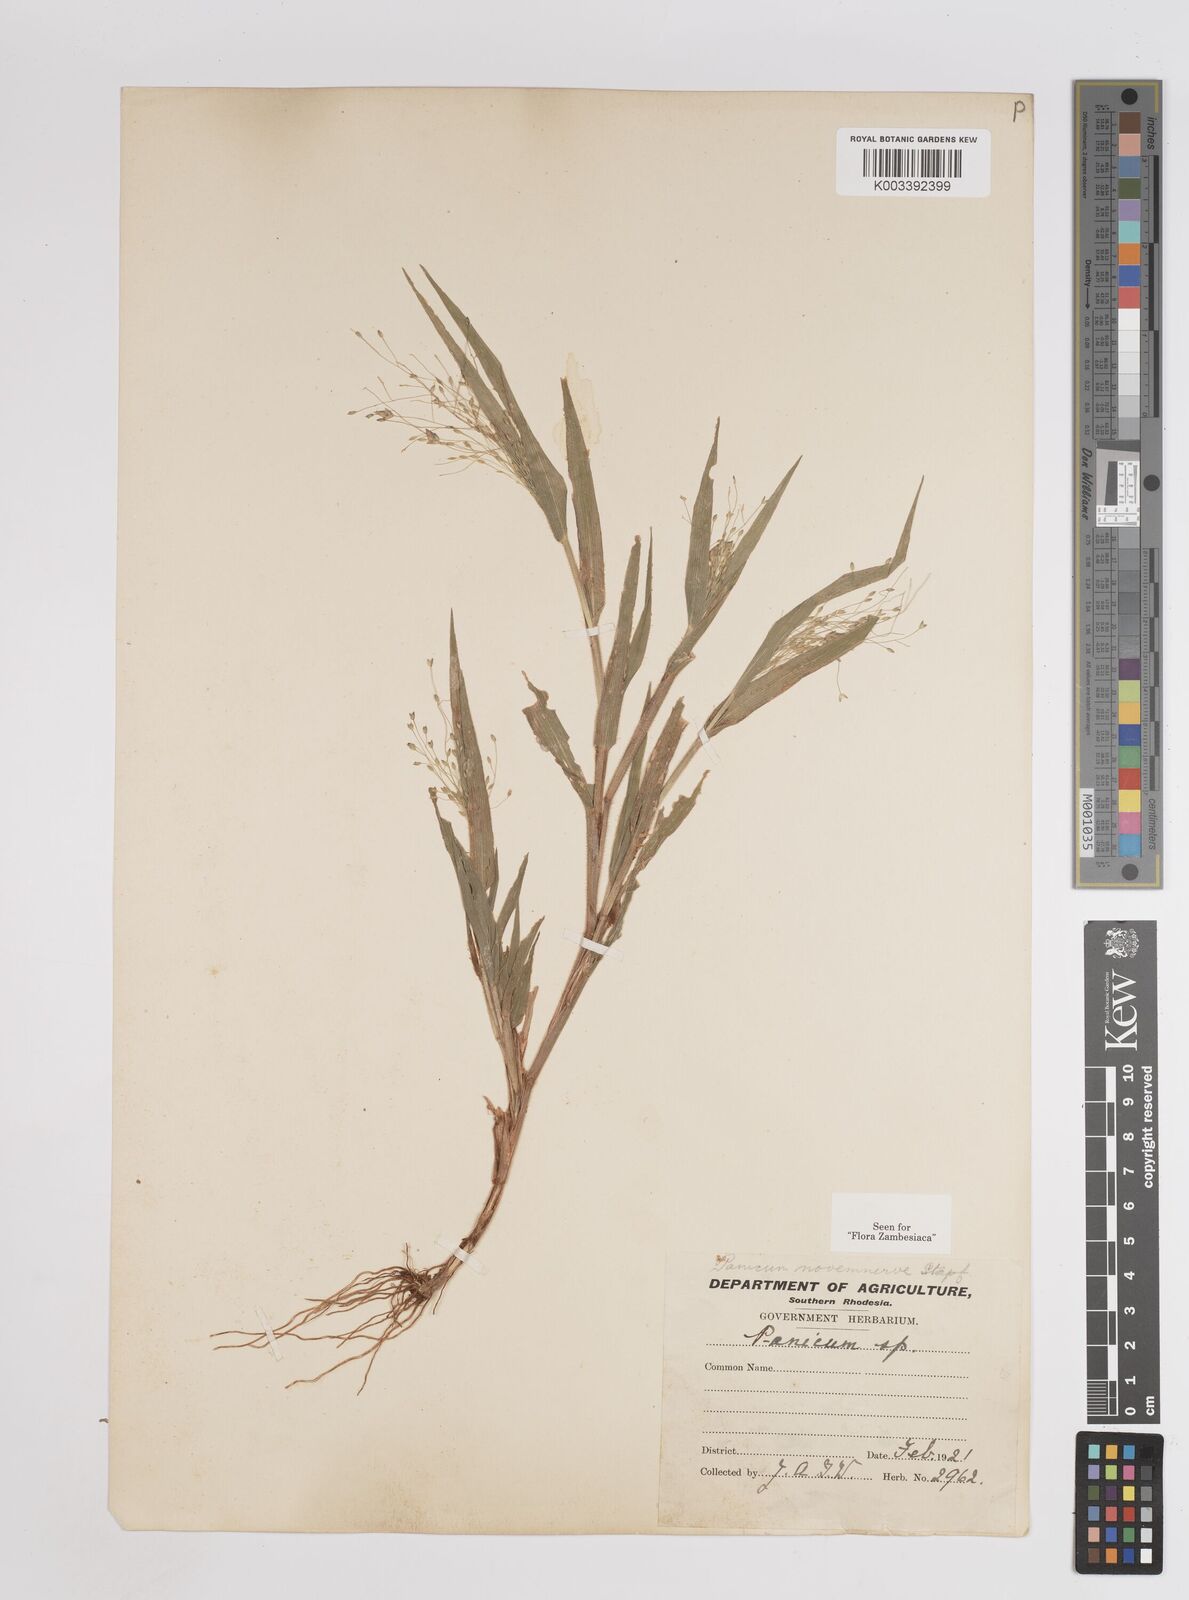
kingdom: Plantae
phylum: Tracheophyta
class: Liliopsida
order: Poales
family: Poaceae
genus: Panicum
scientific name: Panicum novemnerve
